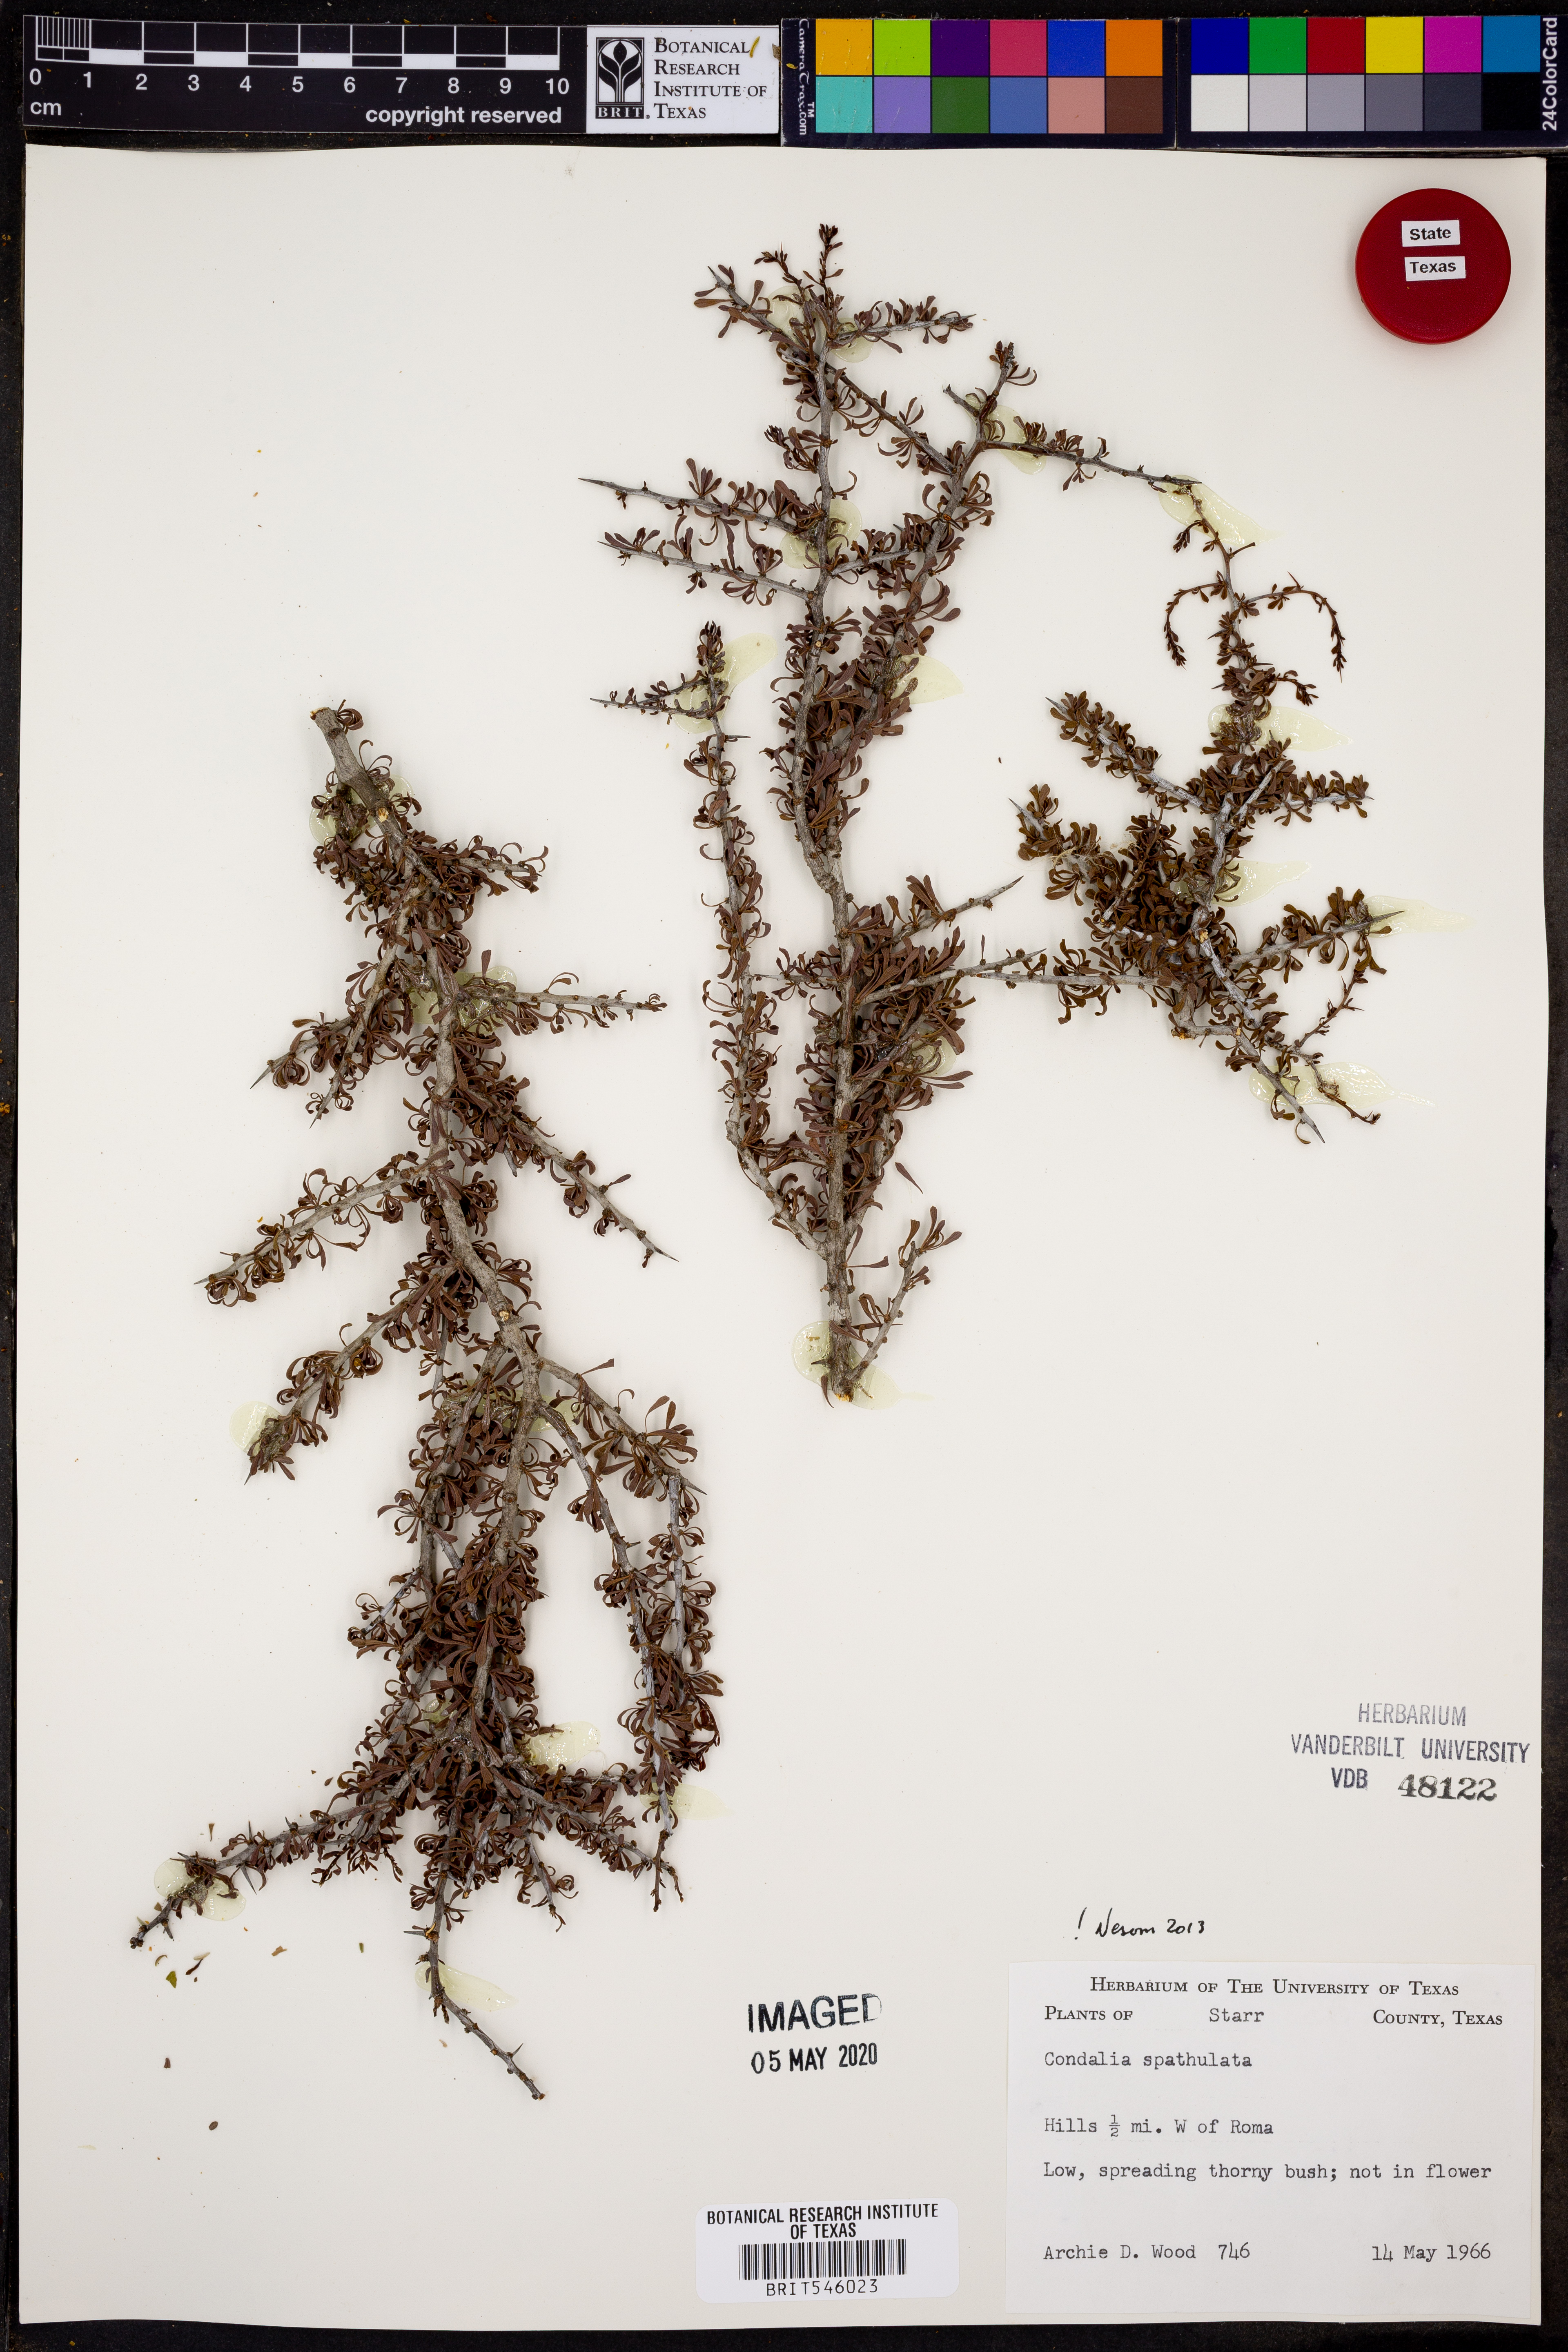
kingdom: Plantae
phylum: Tracheophyta
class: Magnoliopsida
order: Rosales
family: Rhamnaceae
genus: Condalia
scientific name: Condalia spathulata
